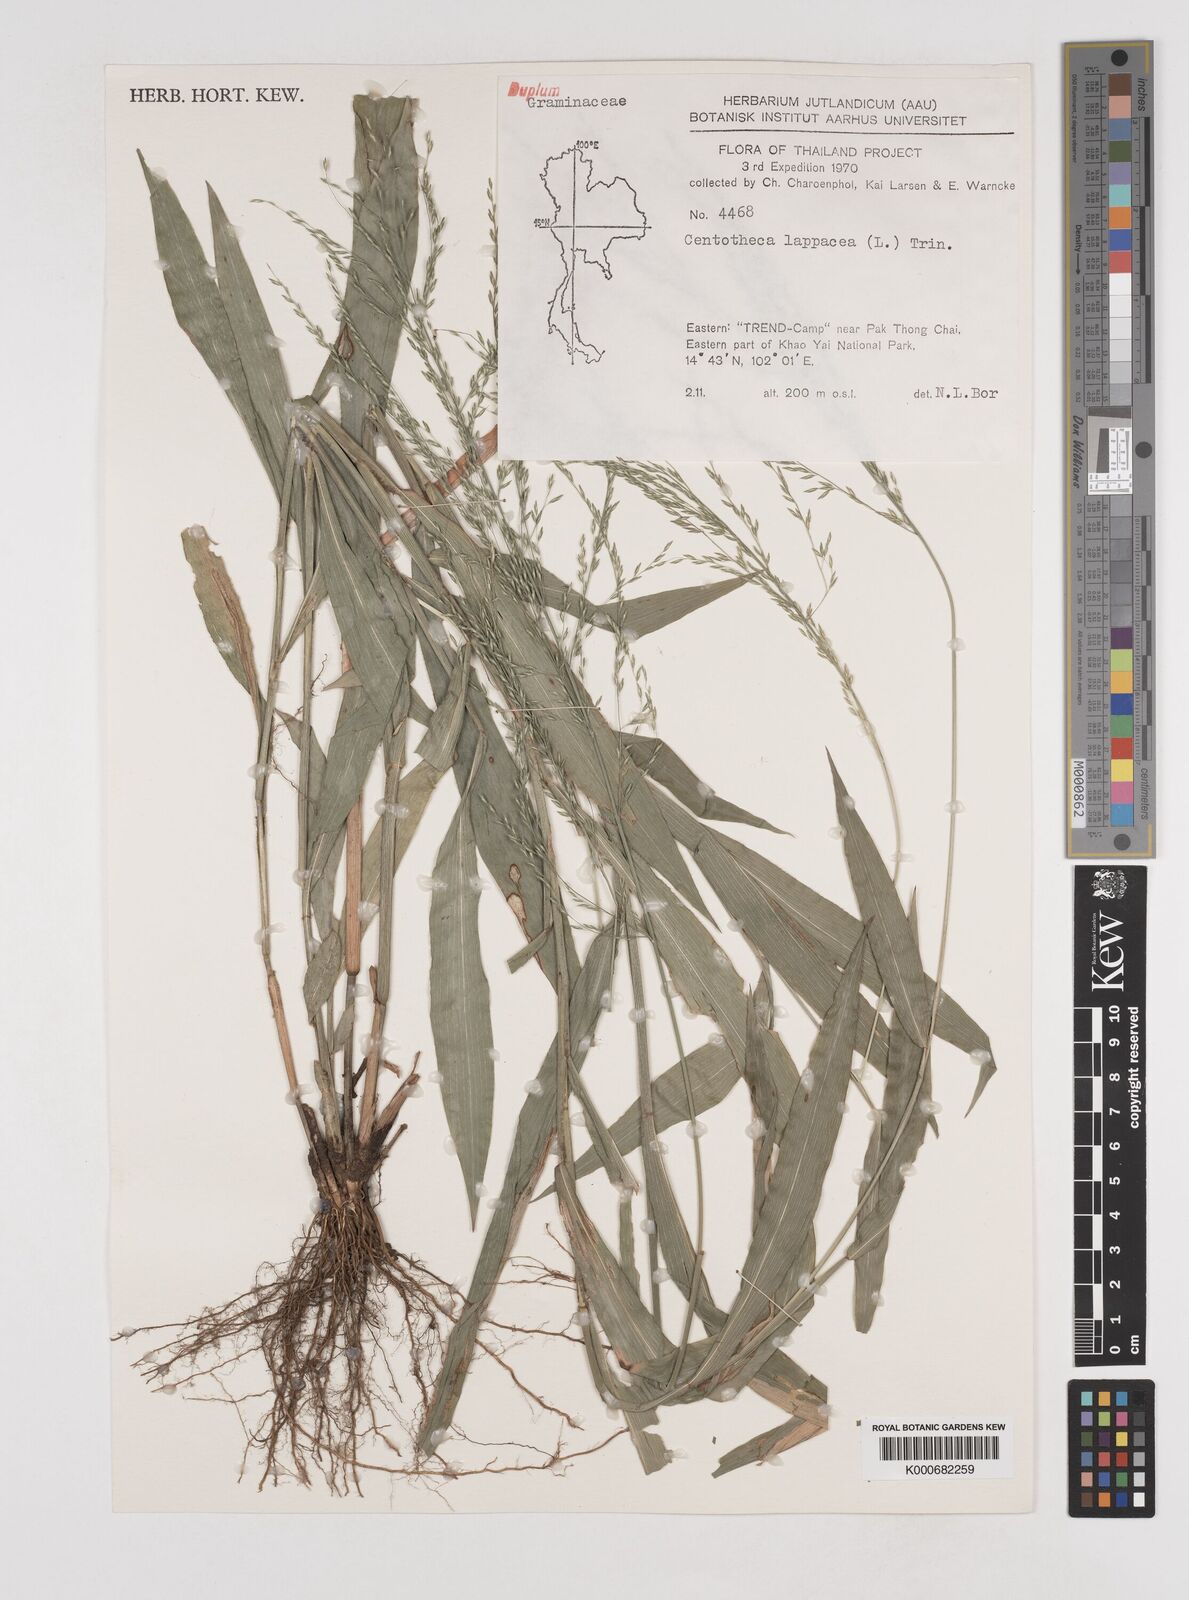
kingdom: Plantae
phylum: Tracheophyta
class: Liliopsida
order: Poales
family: Poaceae
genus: Centotheca
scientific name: Centotheca lappacea
